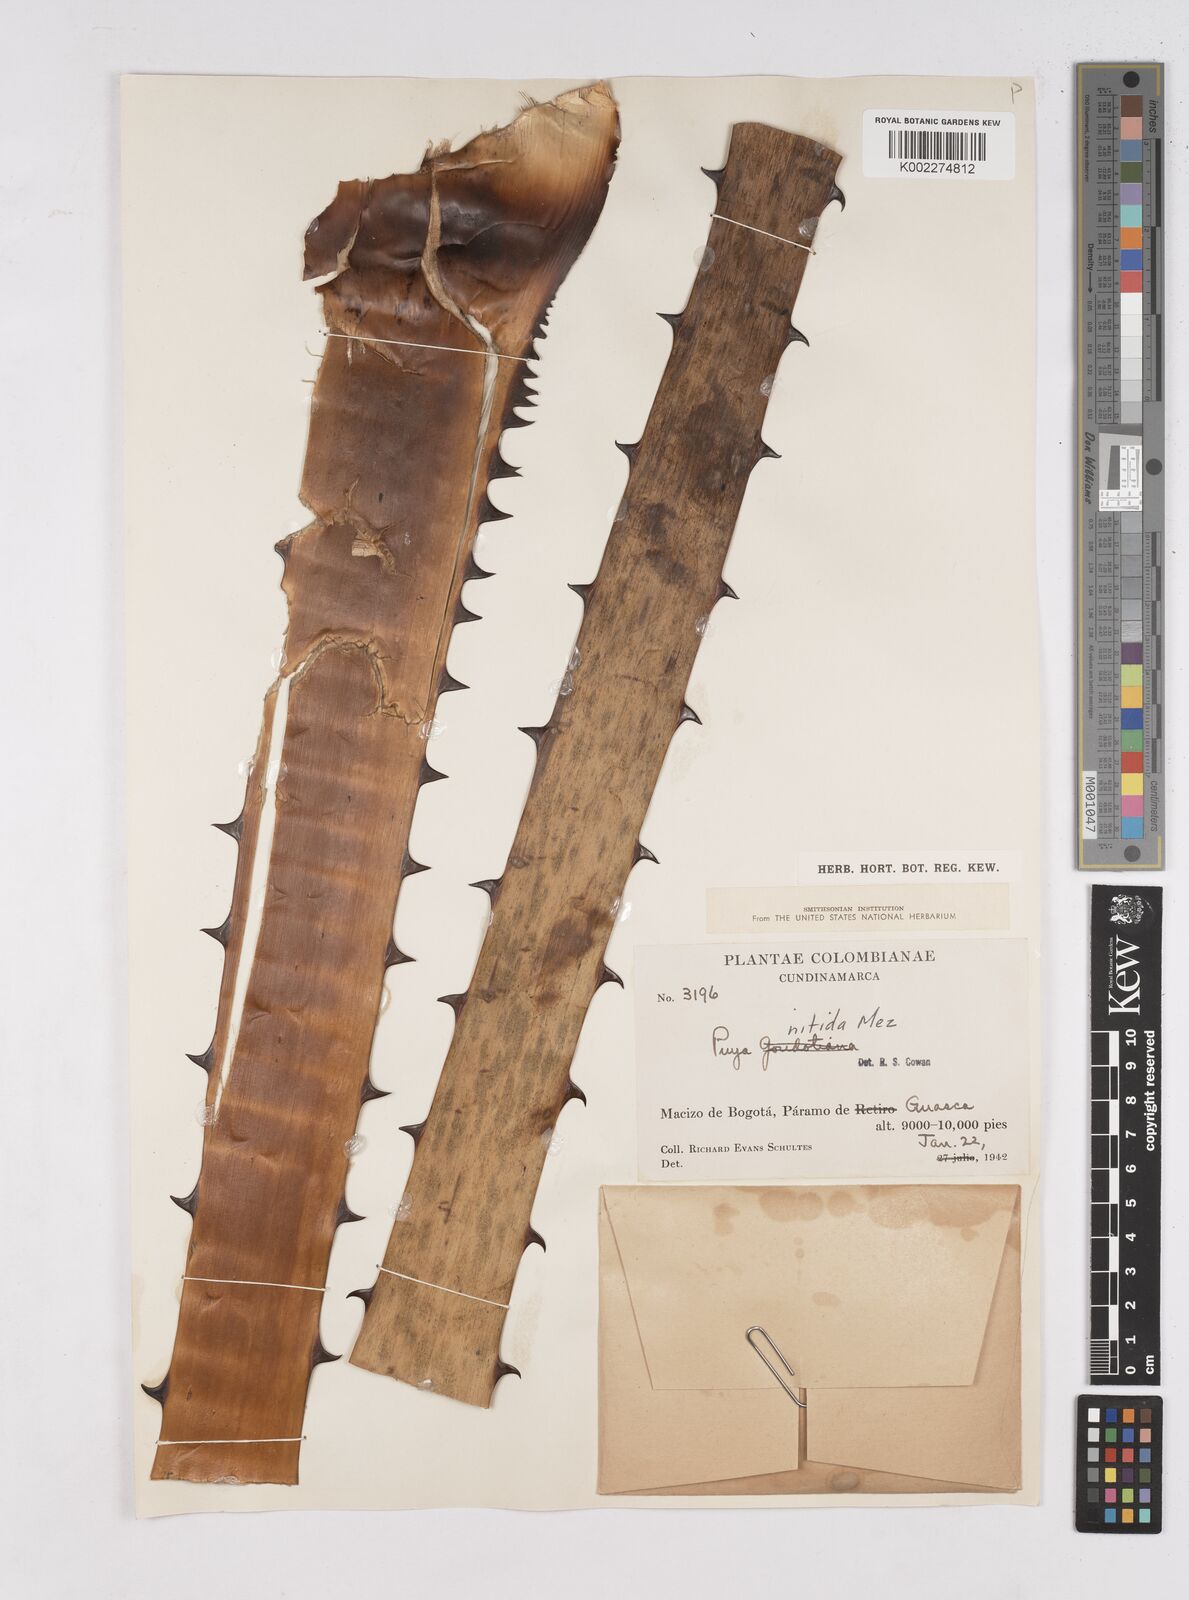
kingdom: Plantae
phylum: Tracheophyta
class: Liliopsida
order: Poales
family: Bromeliaceae
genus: Puya
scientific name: Puya nitida
